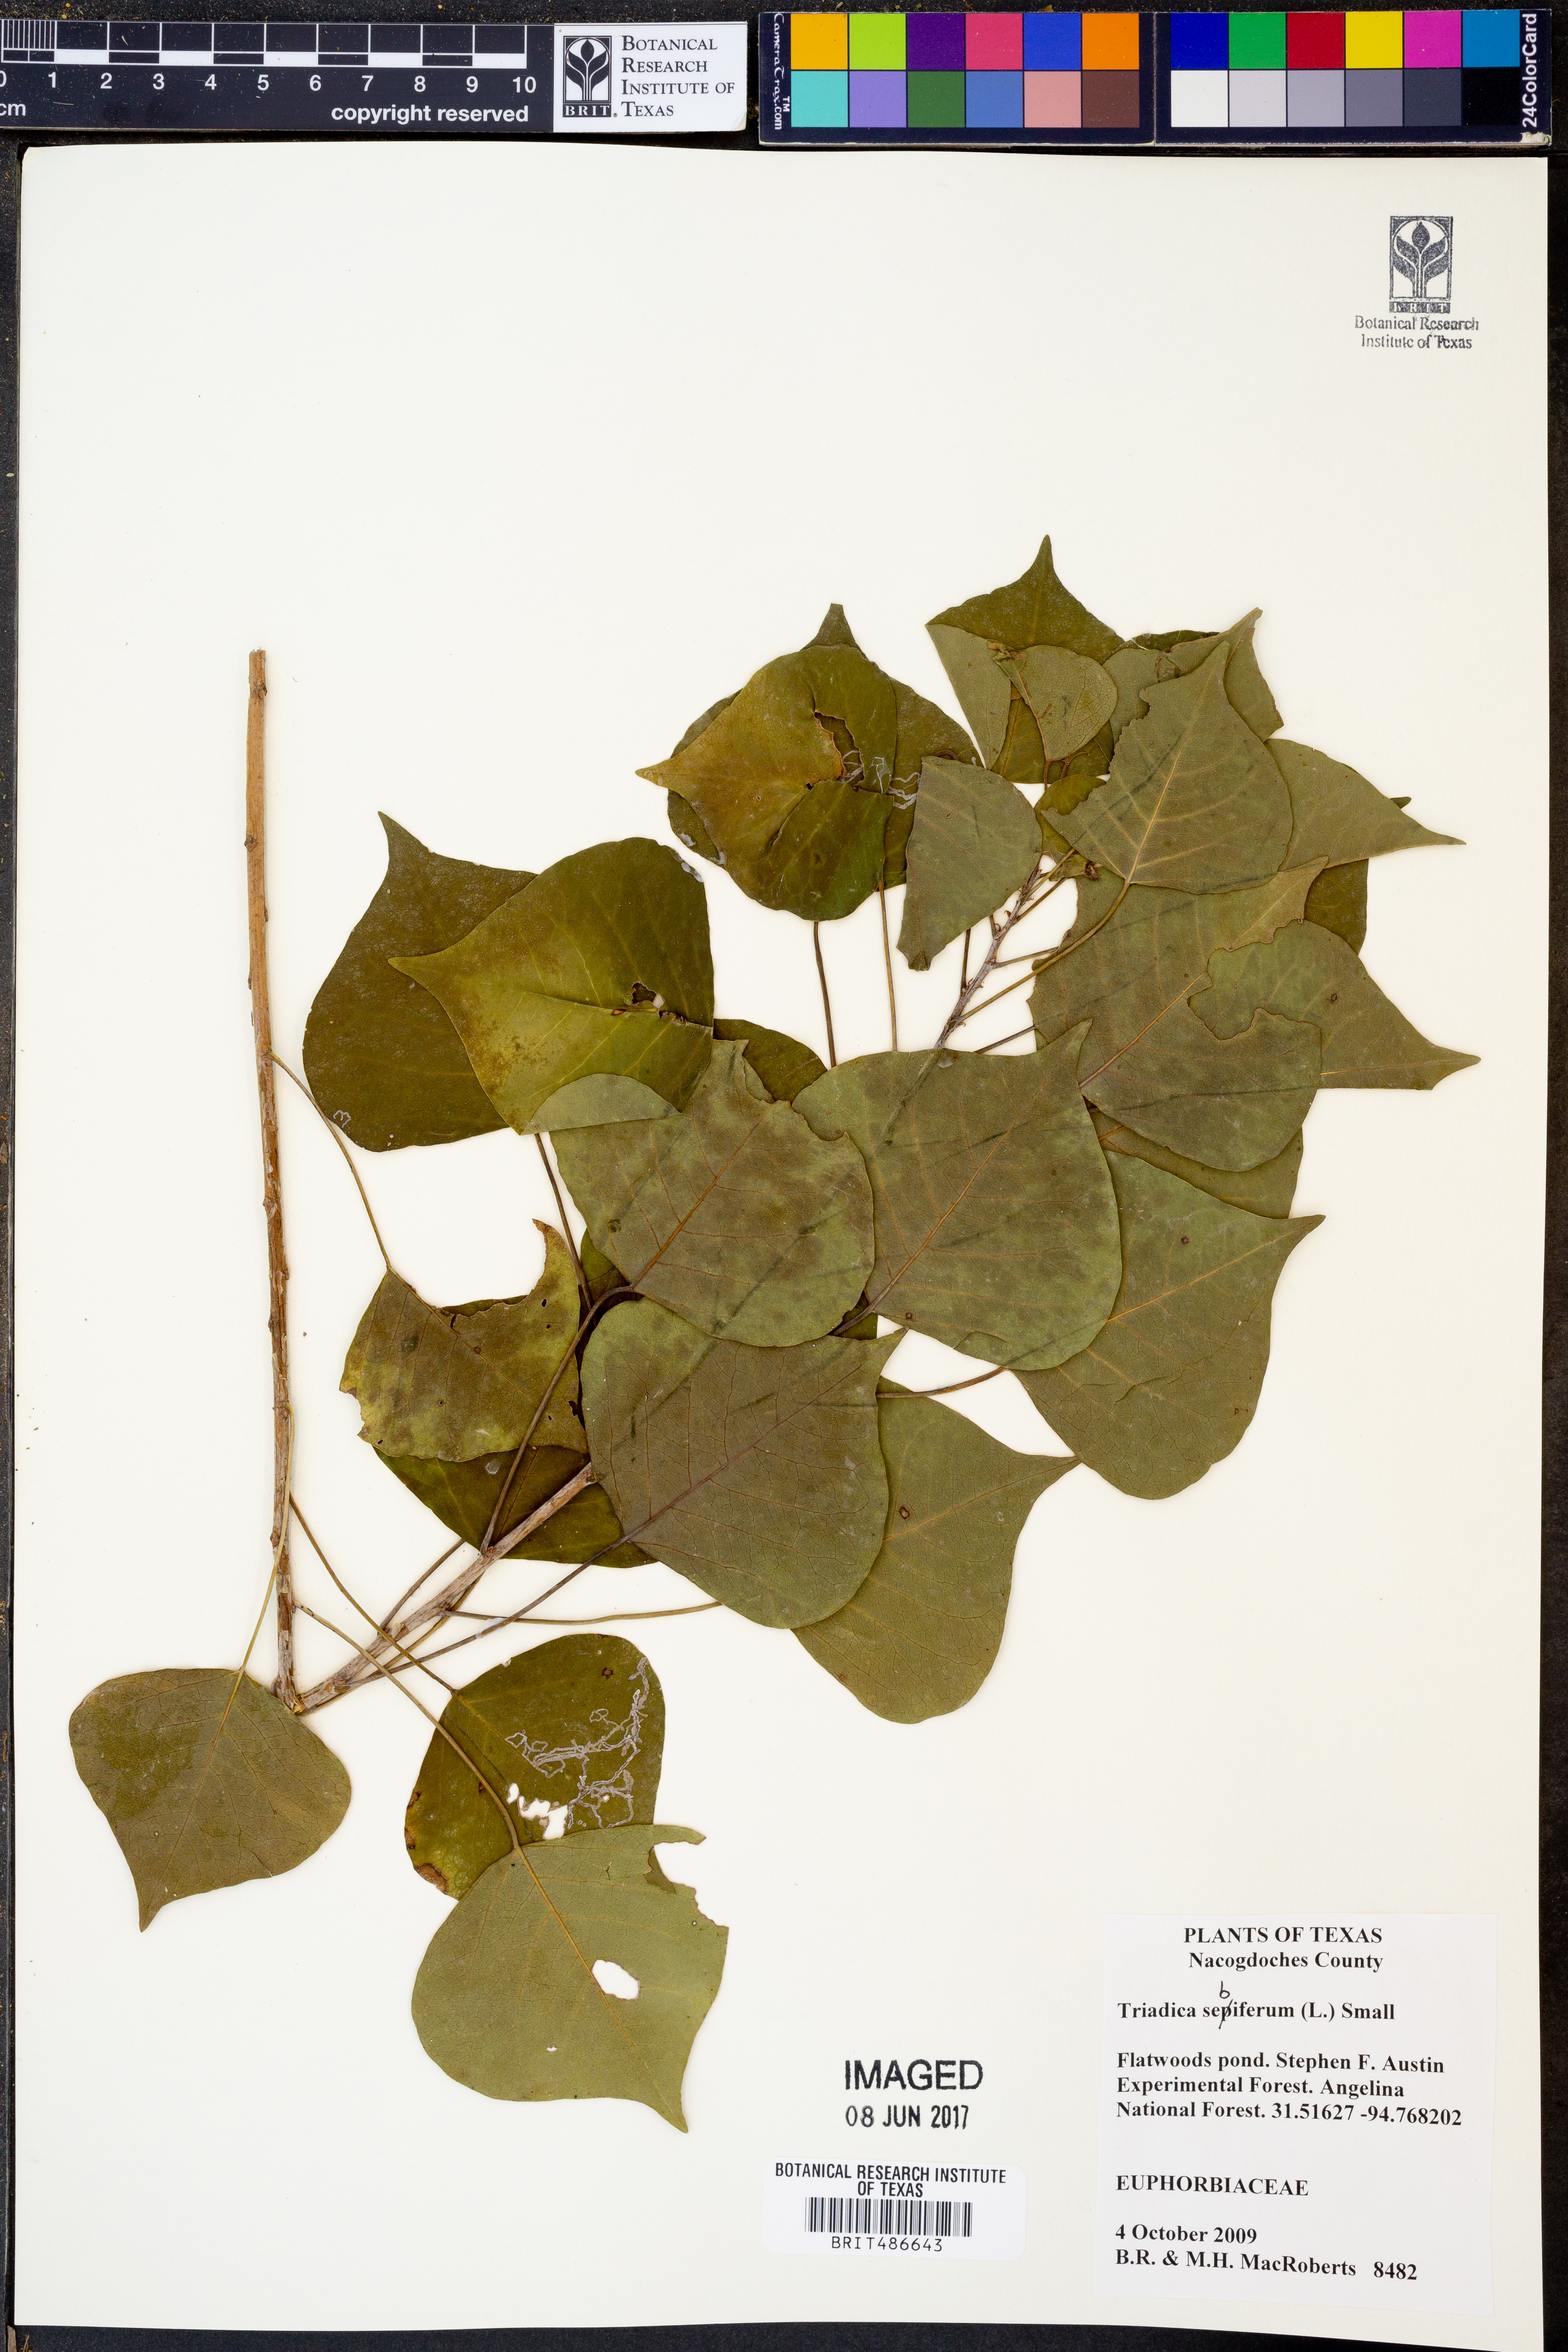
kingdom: Plantae
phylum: Tracheophyta
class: Magnoliopsida
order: Malpighiales
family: Euphorbiaceae
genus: Triadica
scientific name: Triadica sebifera
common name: Chinese tallow
